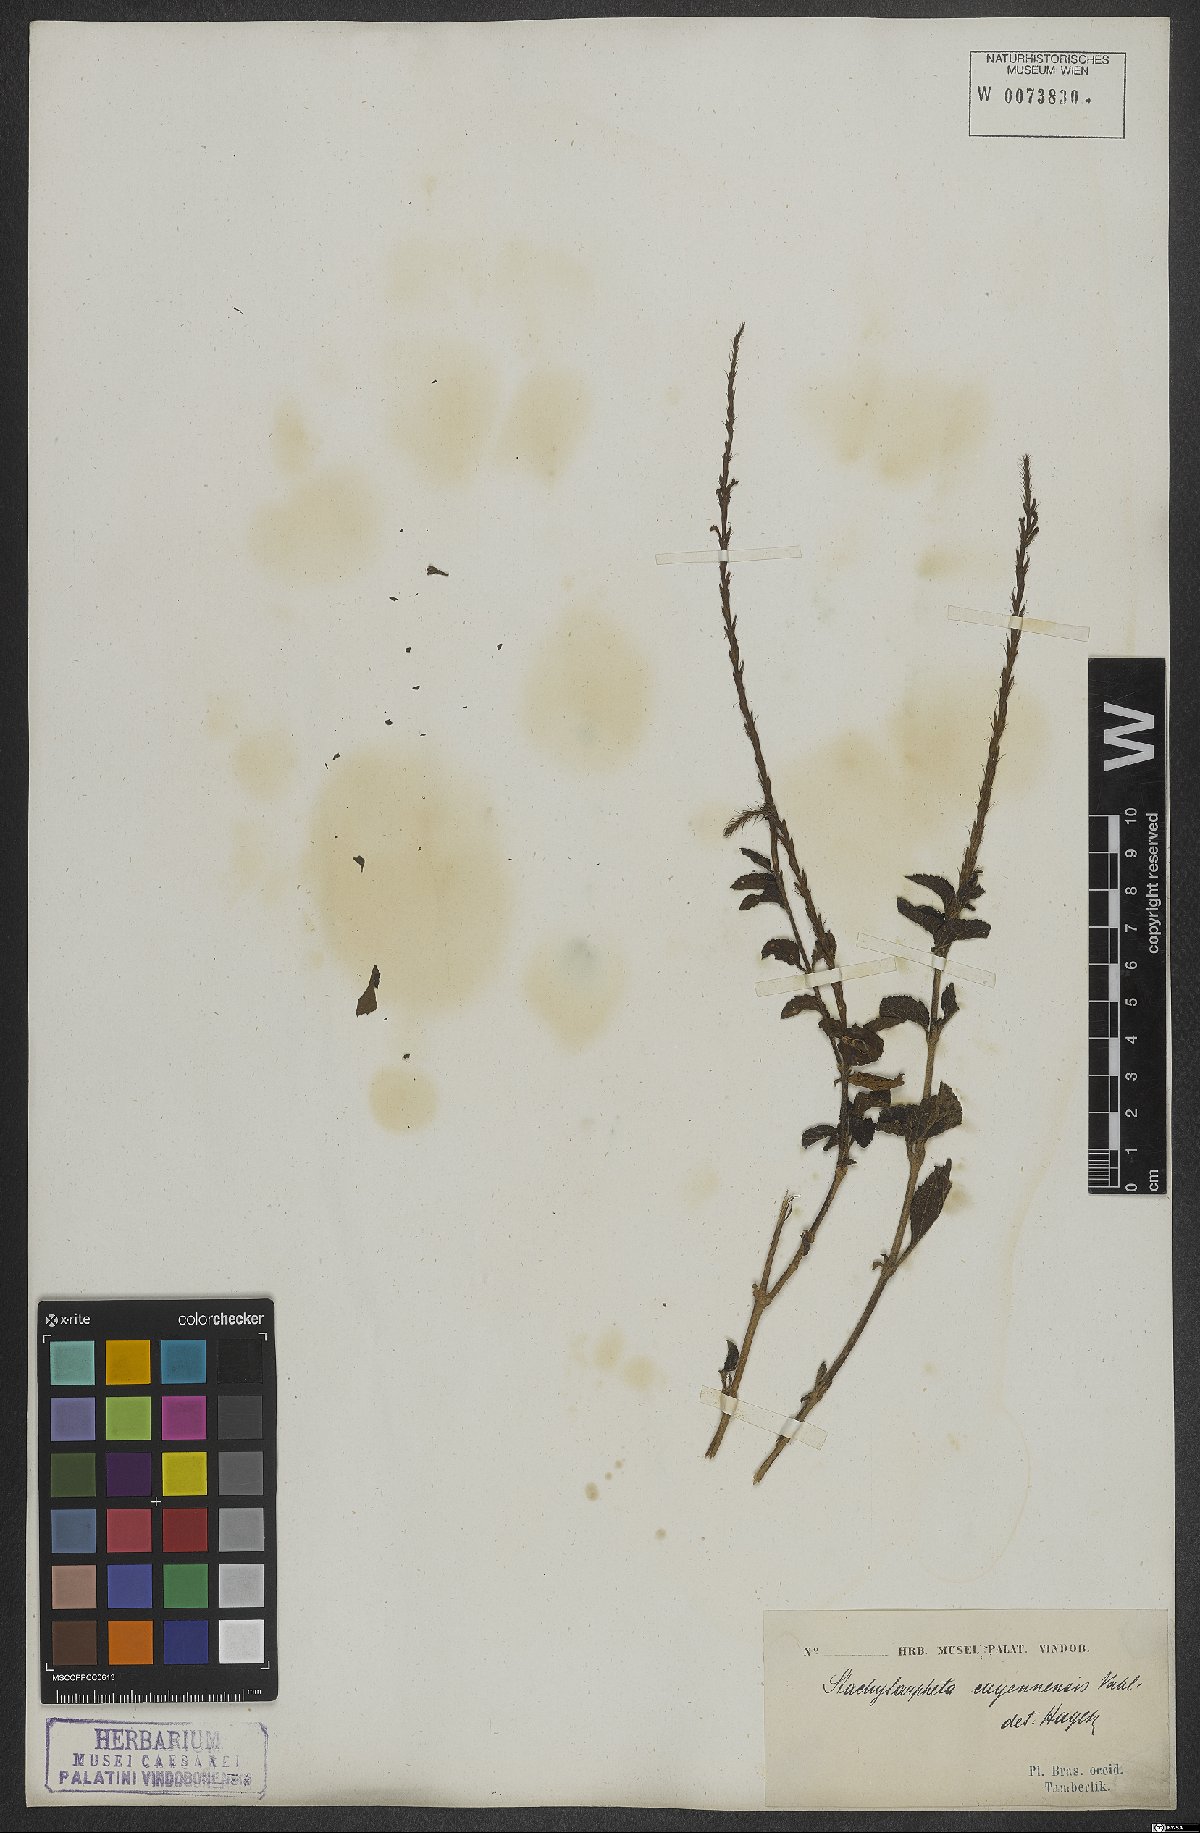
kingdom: Plantae
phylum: Tracheophyta
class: Magnoliopsida
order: Lamiales
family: Verbenaceae
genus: Stachytarpheta
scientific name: Stachytarpheta cayennensis
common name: Cayenne porterweed
